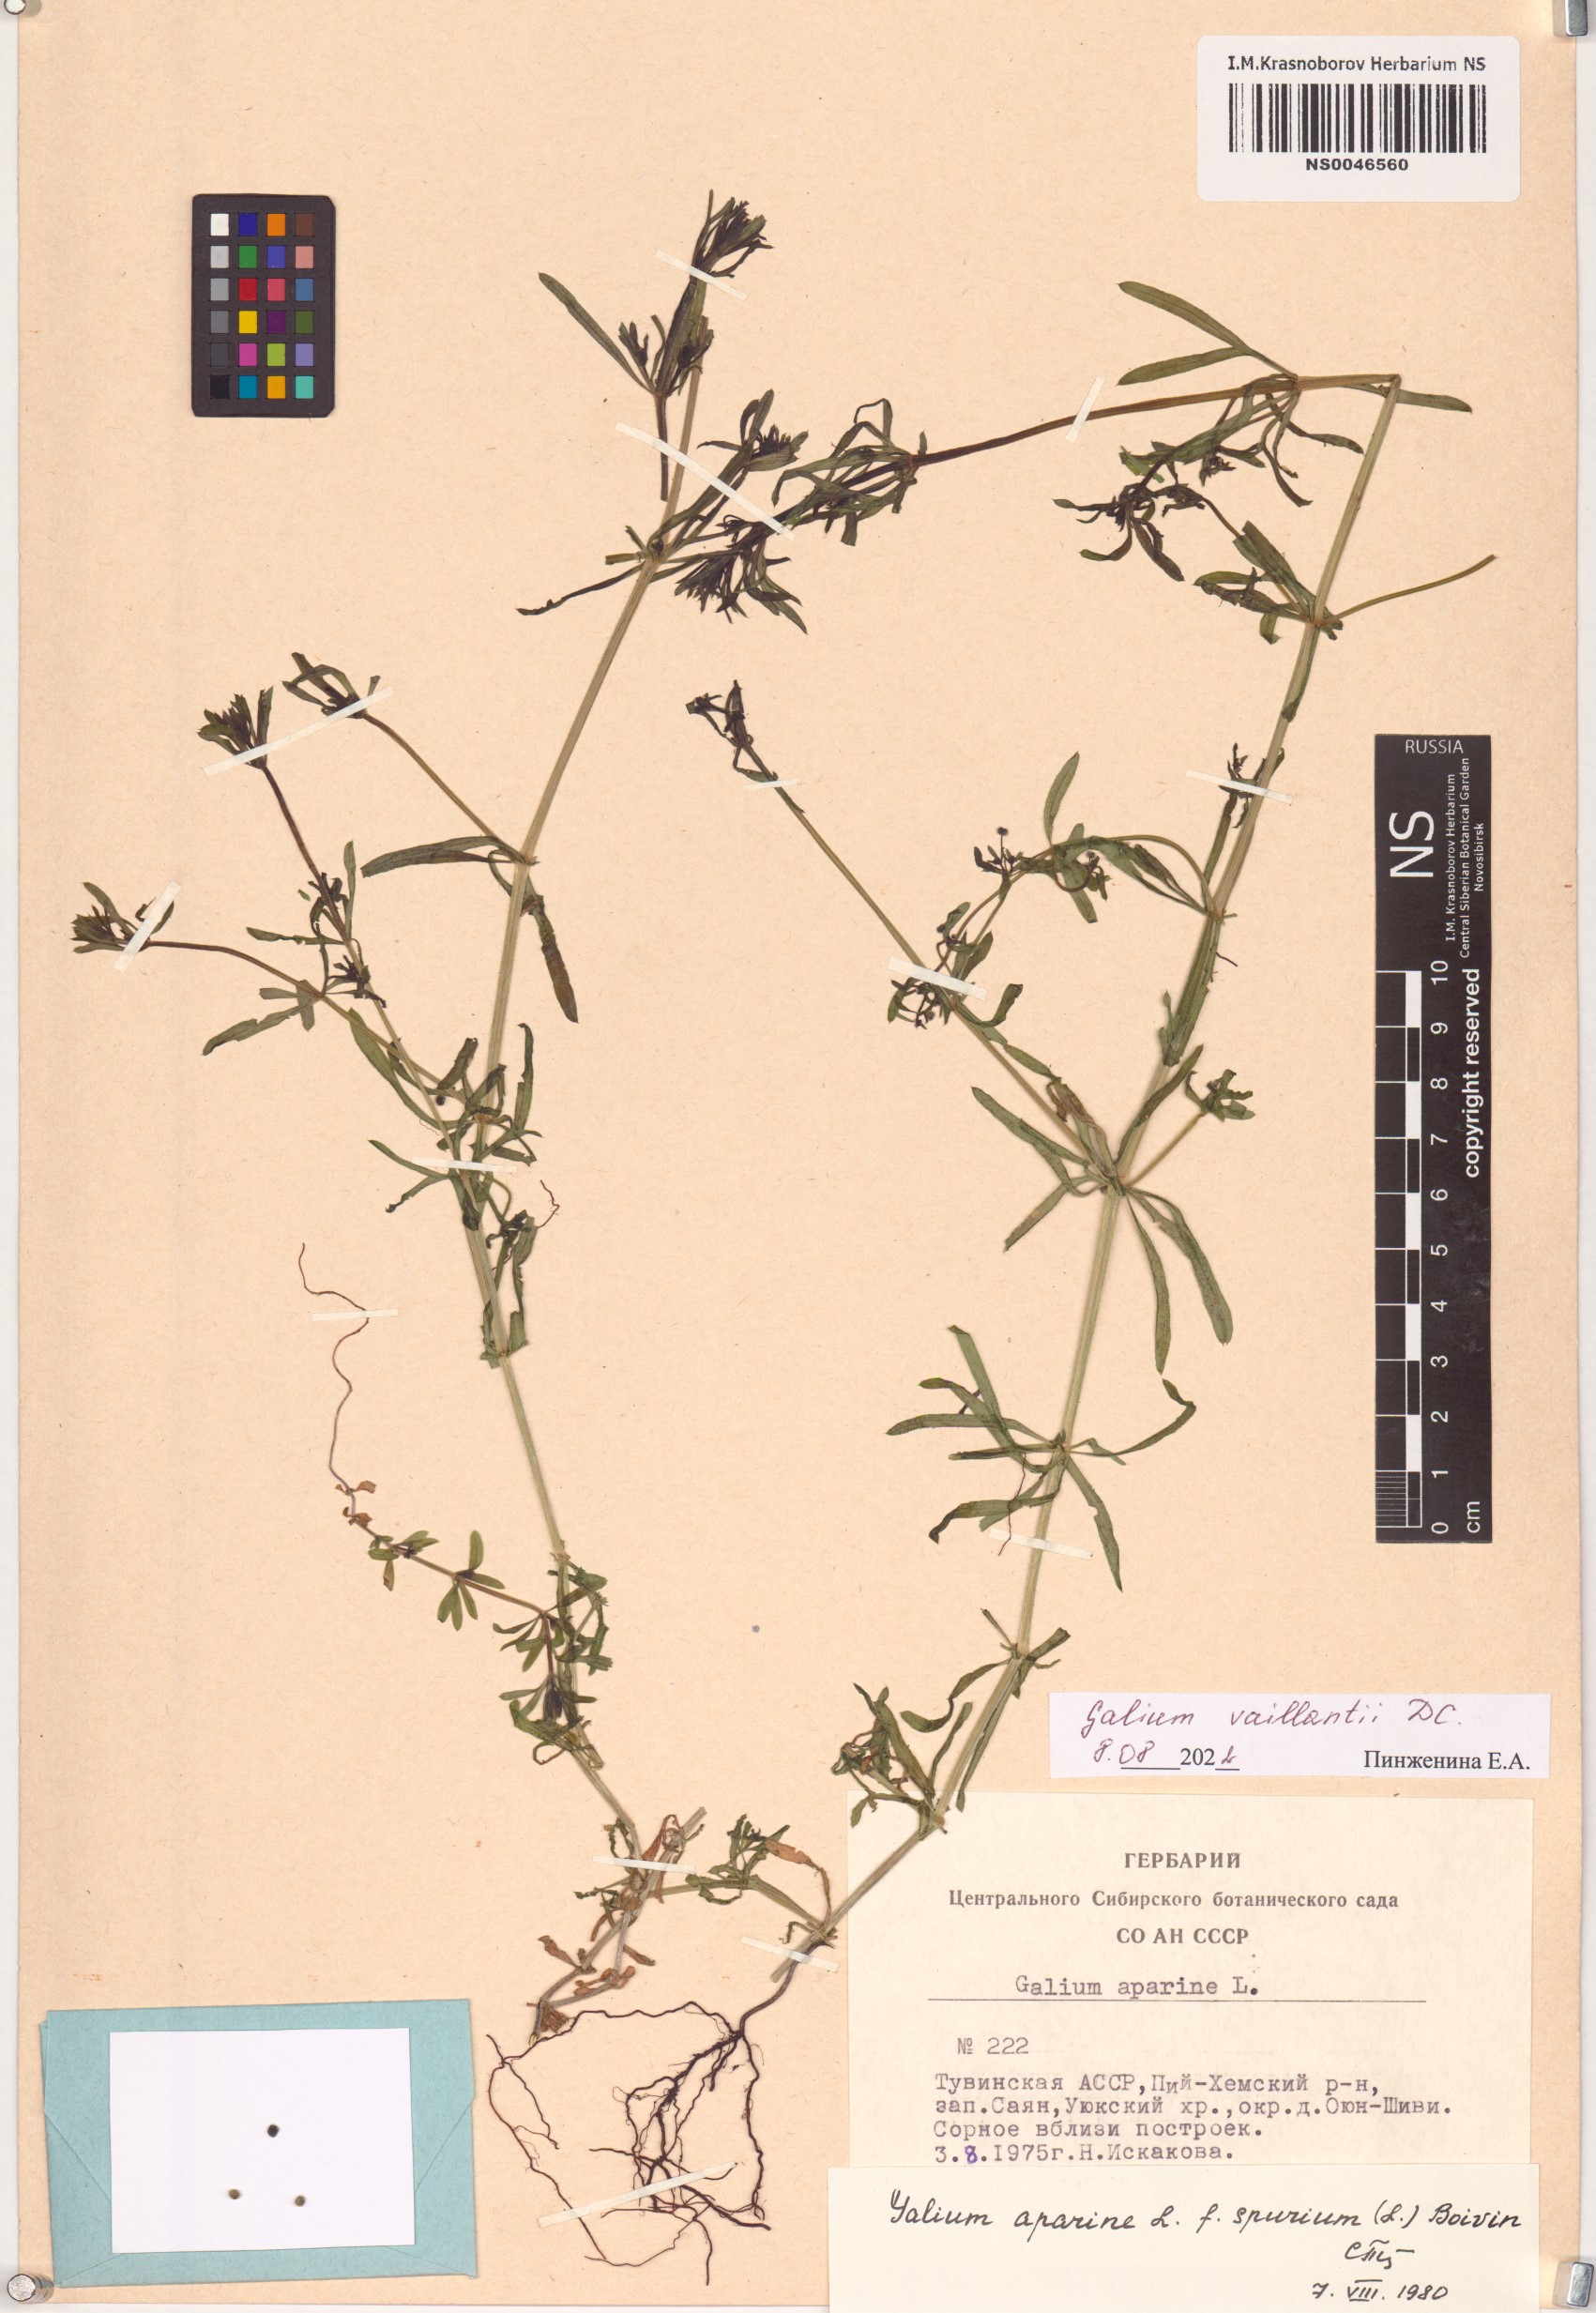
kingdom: Plantae
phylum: Tracheophyta
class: Magnoliopsida
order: Gentianales
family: Rubiaceae
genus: Galium
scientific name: Galium spurium
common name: False cleavers
